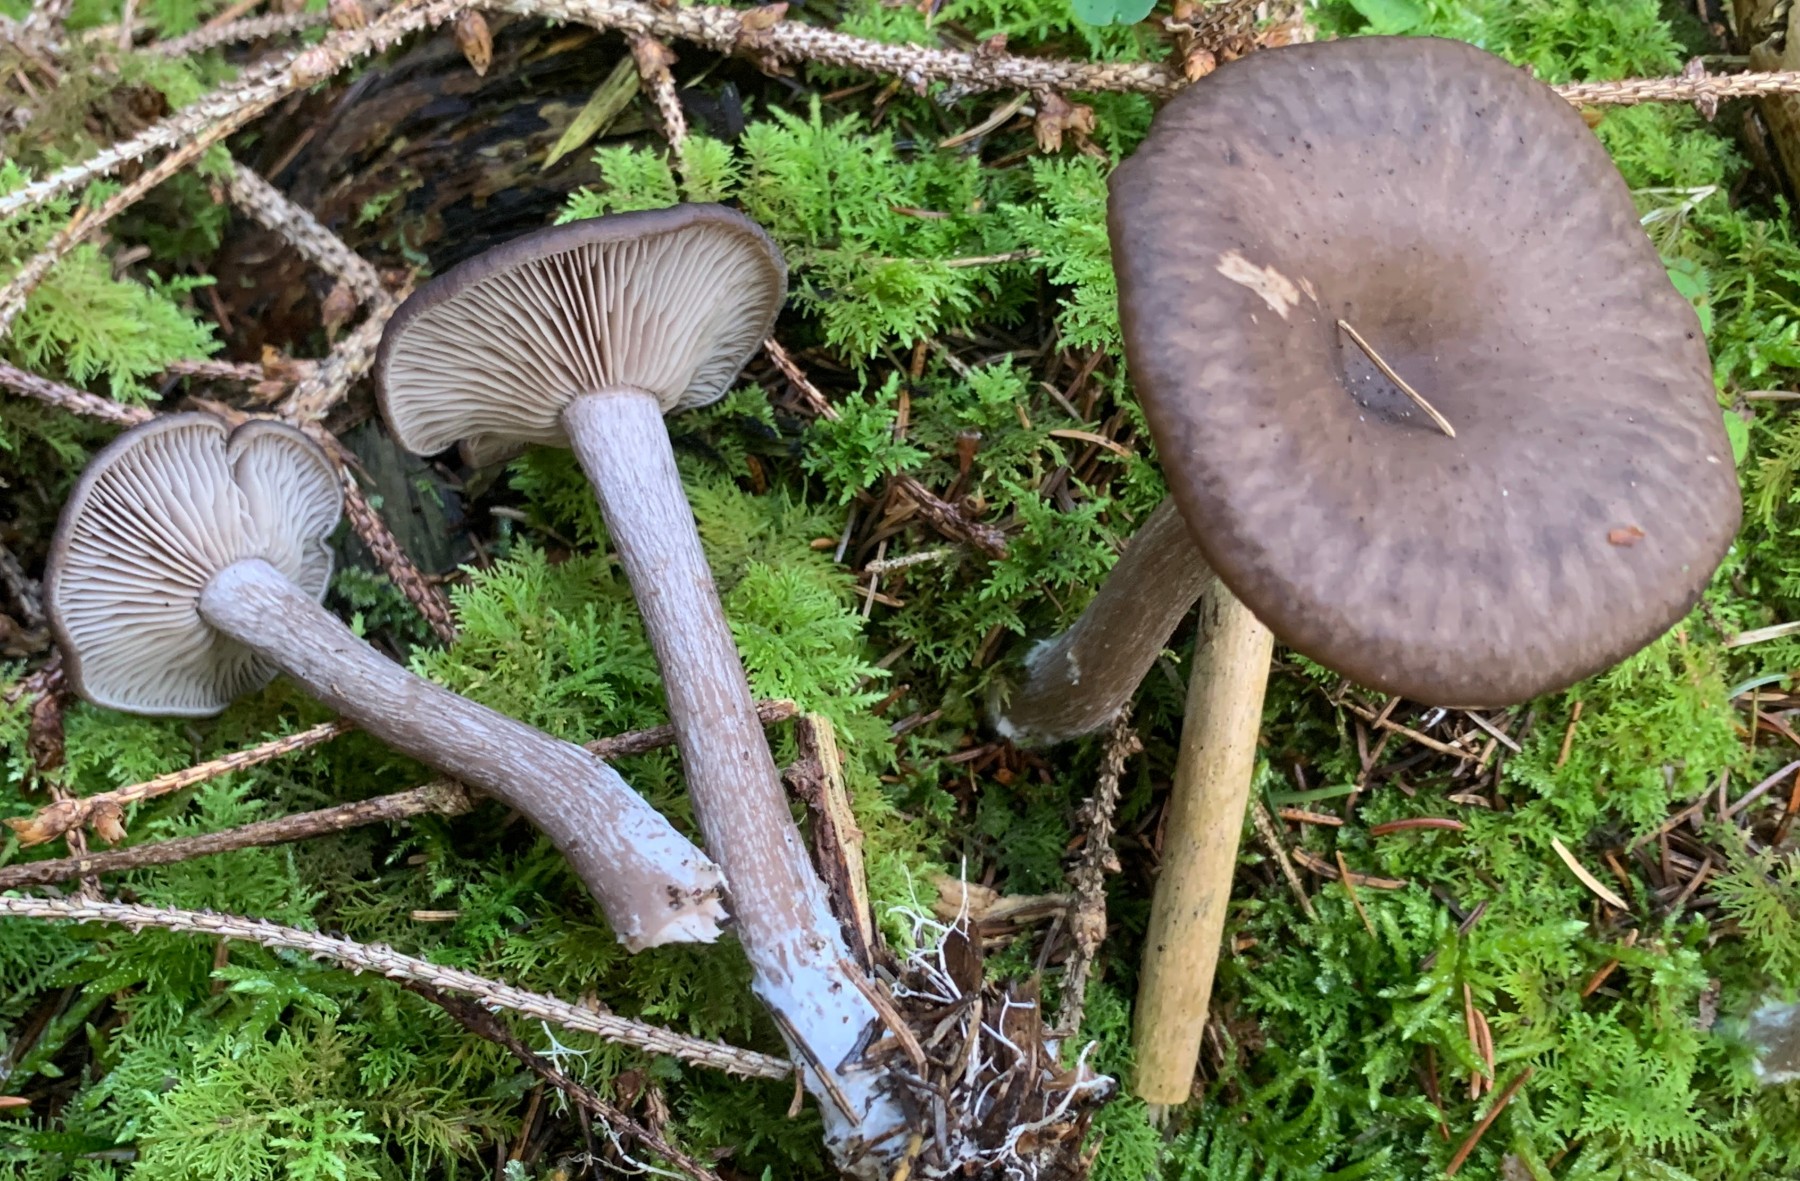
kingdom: Fungi
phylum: Basidiomycota
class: Agaricomycetes
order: Agaricales
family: Pseudoclitocybaceae
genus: Pseudoclitocybe
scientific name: Pseudoclitocybe cyathiformis
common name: almindelig bægertragthat
